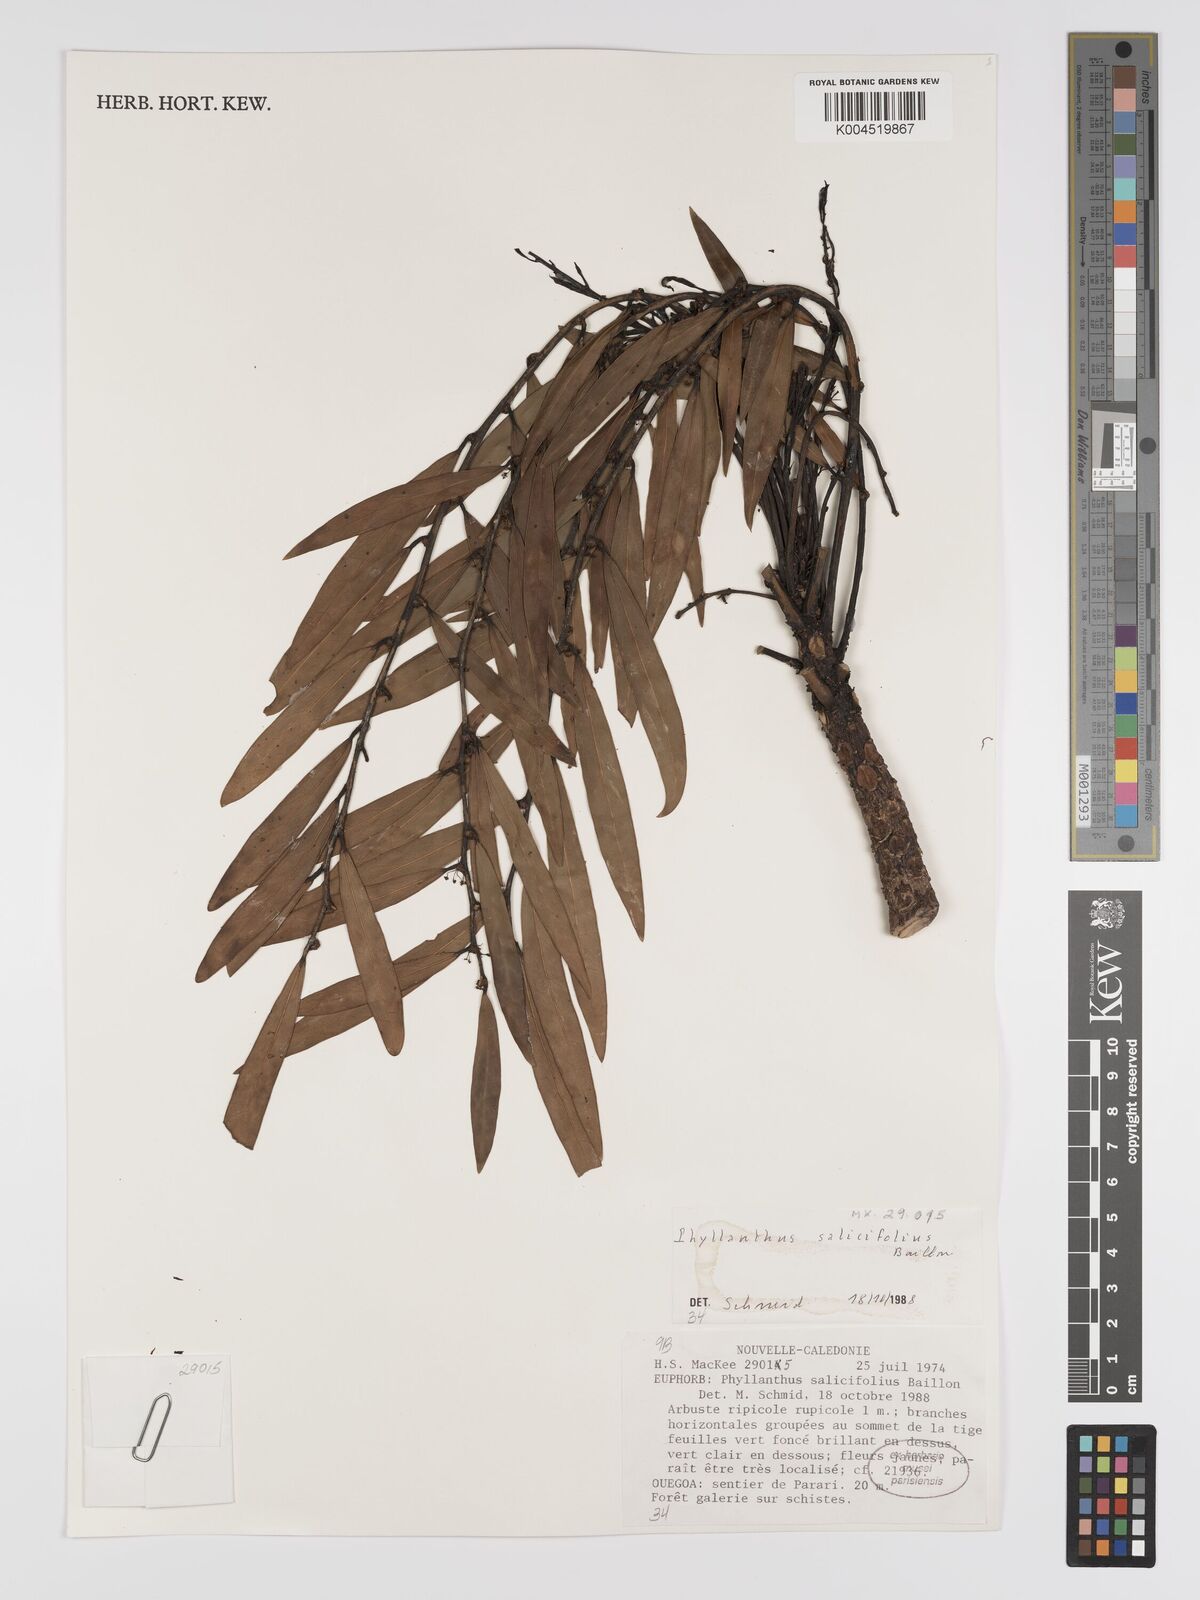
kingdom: Plantae
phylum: Tracheophyta
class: Magnoliopsida
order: Malpighiales
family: Phyllanthaceae
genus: Phyllanthus
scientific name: Phyllanthus salicifolius
